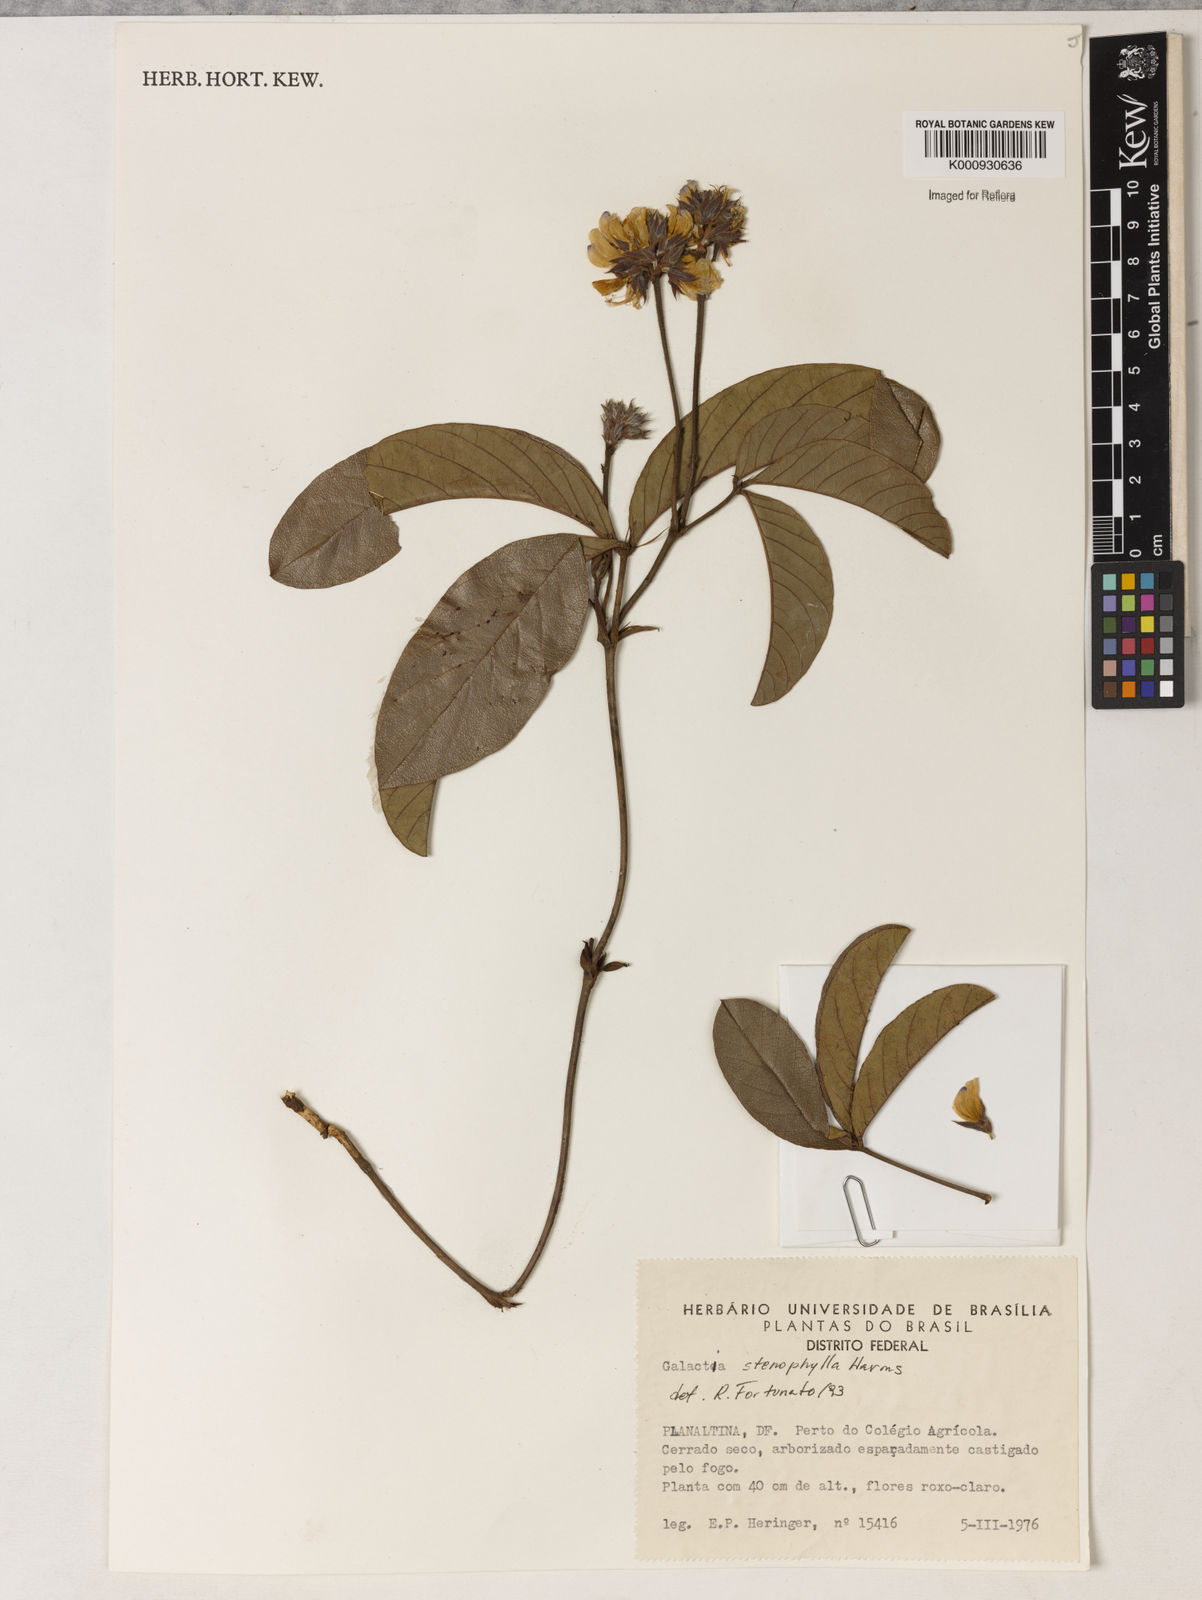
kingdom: Plantae
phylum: Tracheophyta
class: Magnoliopsida
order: Fabales
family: Fabaceae
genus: Betencourtia
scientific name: Betencourtia stereophylla
